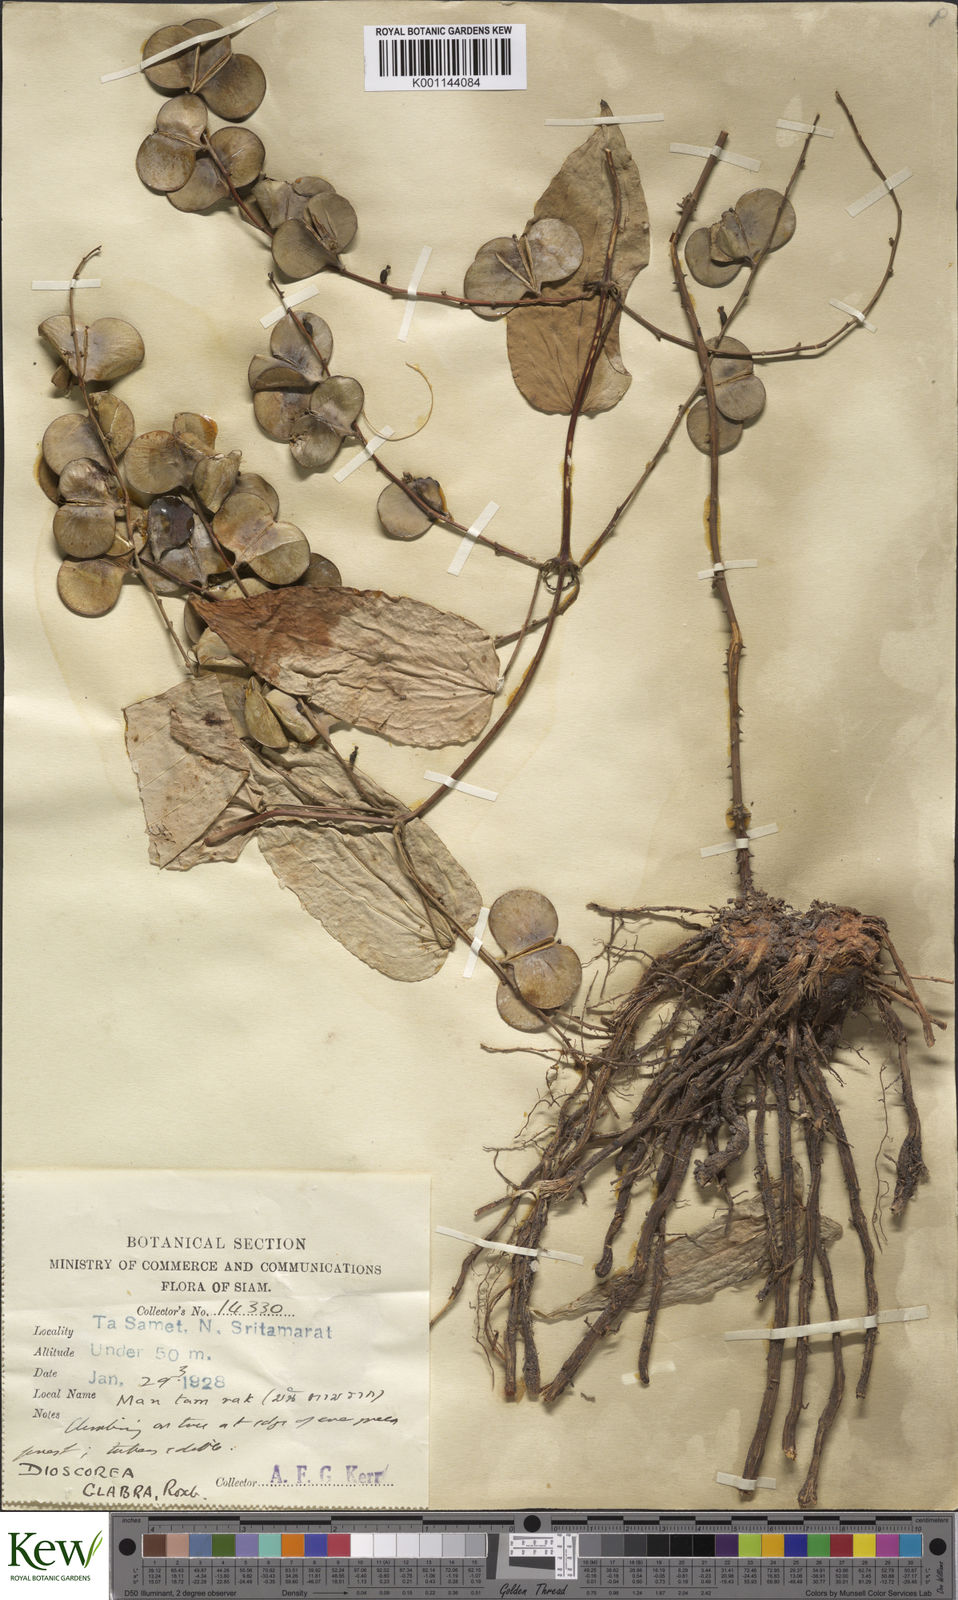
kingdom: Plantae
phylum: Tracheophyta
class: Liliopsida
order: Dioscoreales
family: Dioscoreaceae
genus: Dioscorea
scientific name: Dioscorea glabra
